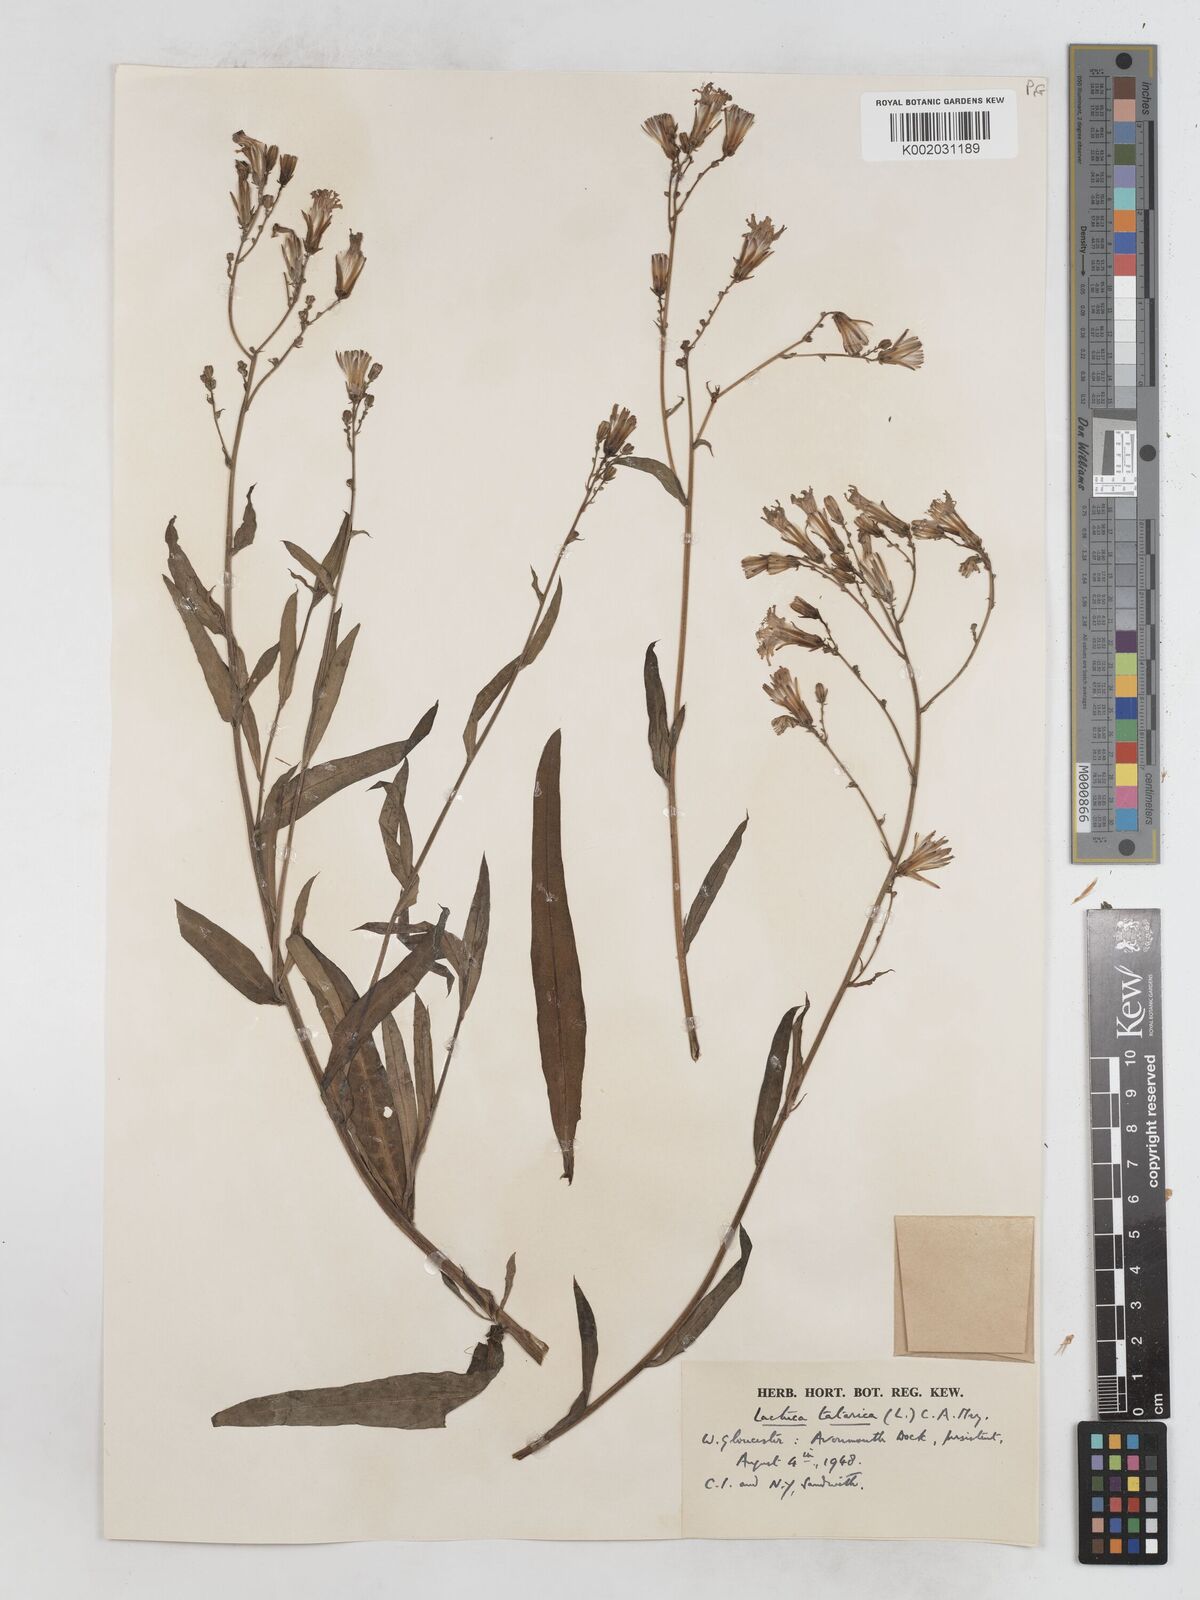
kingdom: Plantae
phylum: Tracheophyta
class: Magnoliopsida
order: Asterales
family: Asteraceae
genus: Lactuca
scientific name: Lactuca tatarica
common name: Blue lettuce
